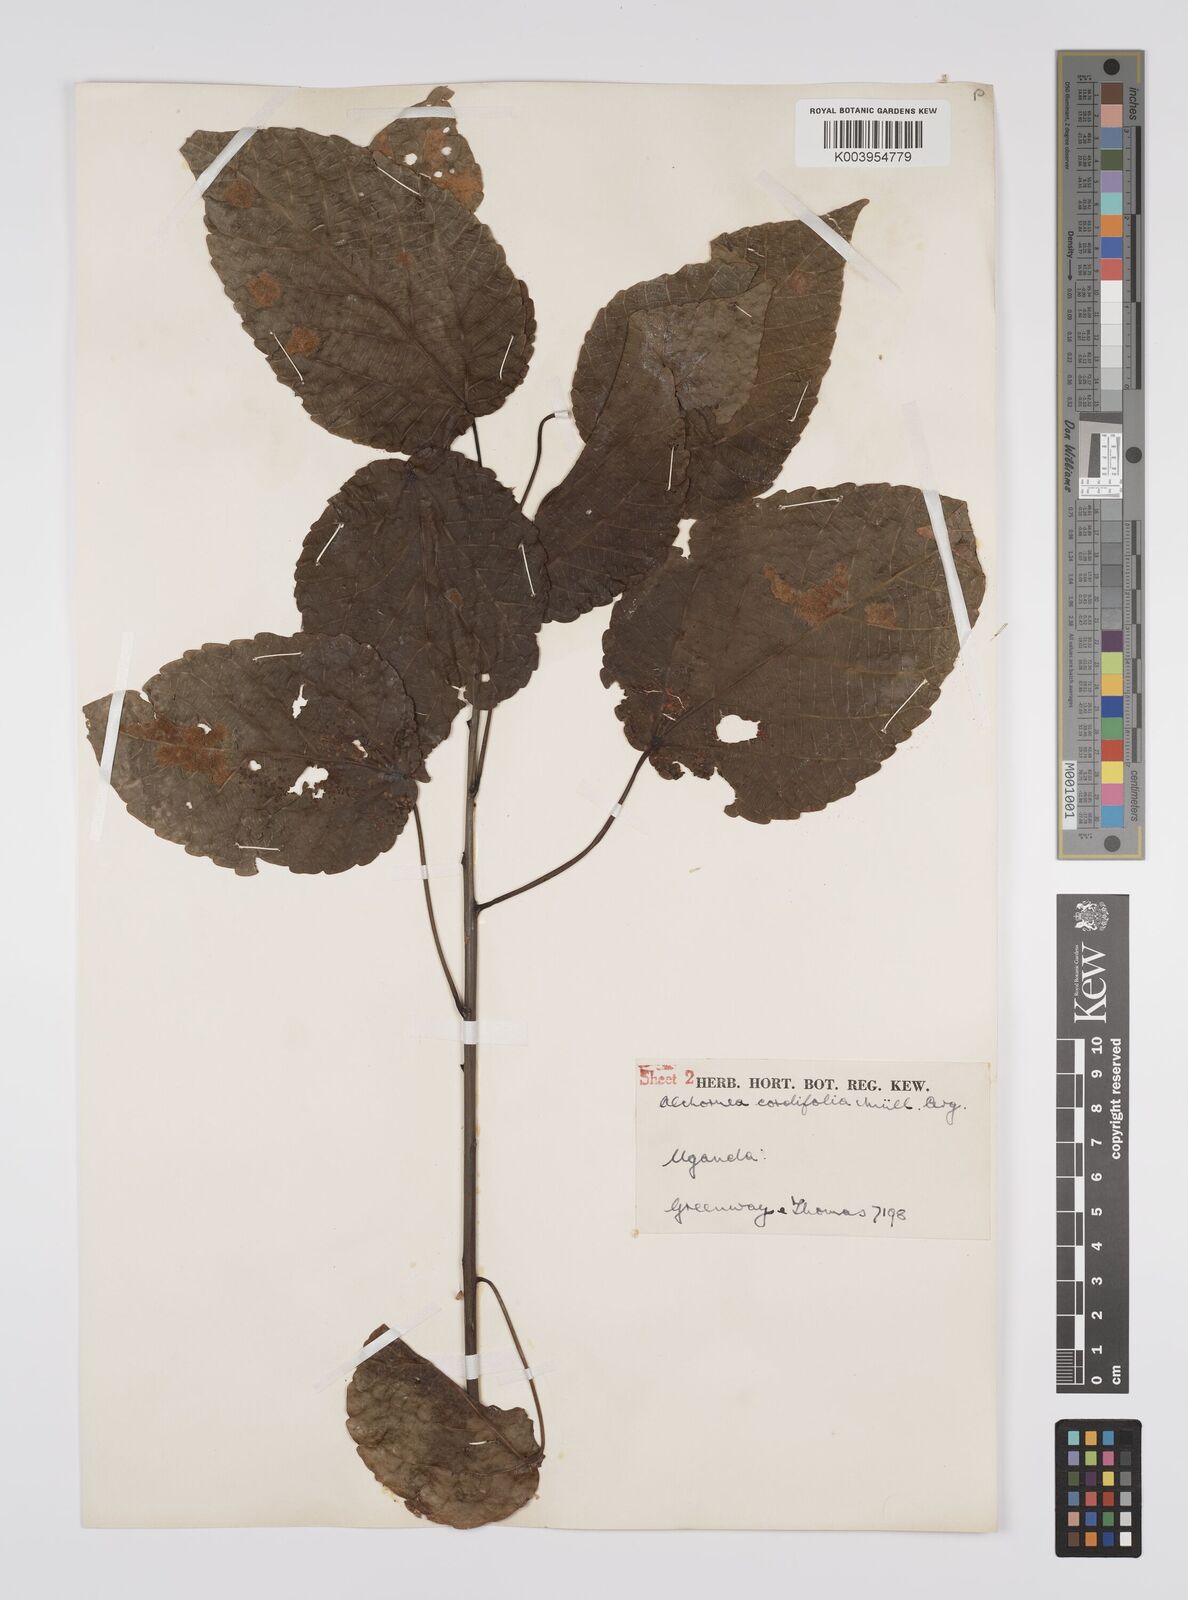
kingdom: Plantae
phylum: Tracheophyta
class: Magnoliopsida
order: Malpighiales
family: Euphorbiaceae
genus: Alchornea
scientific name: Alchornea cordifolia
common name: Christmasbush
